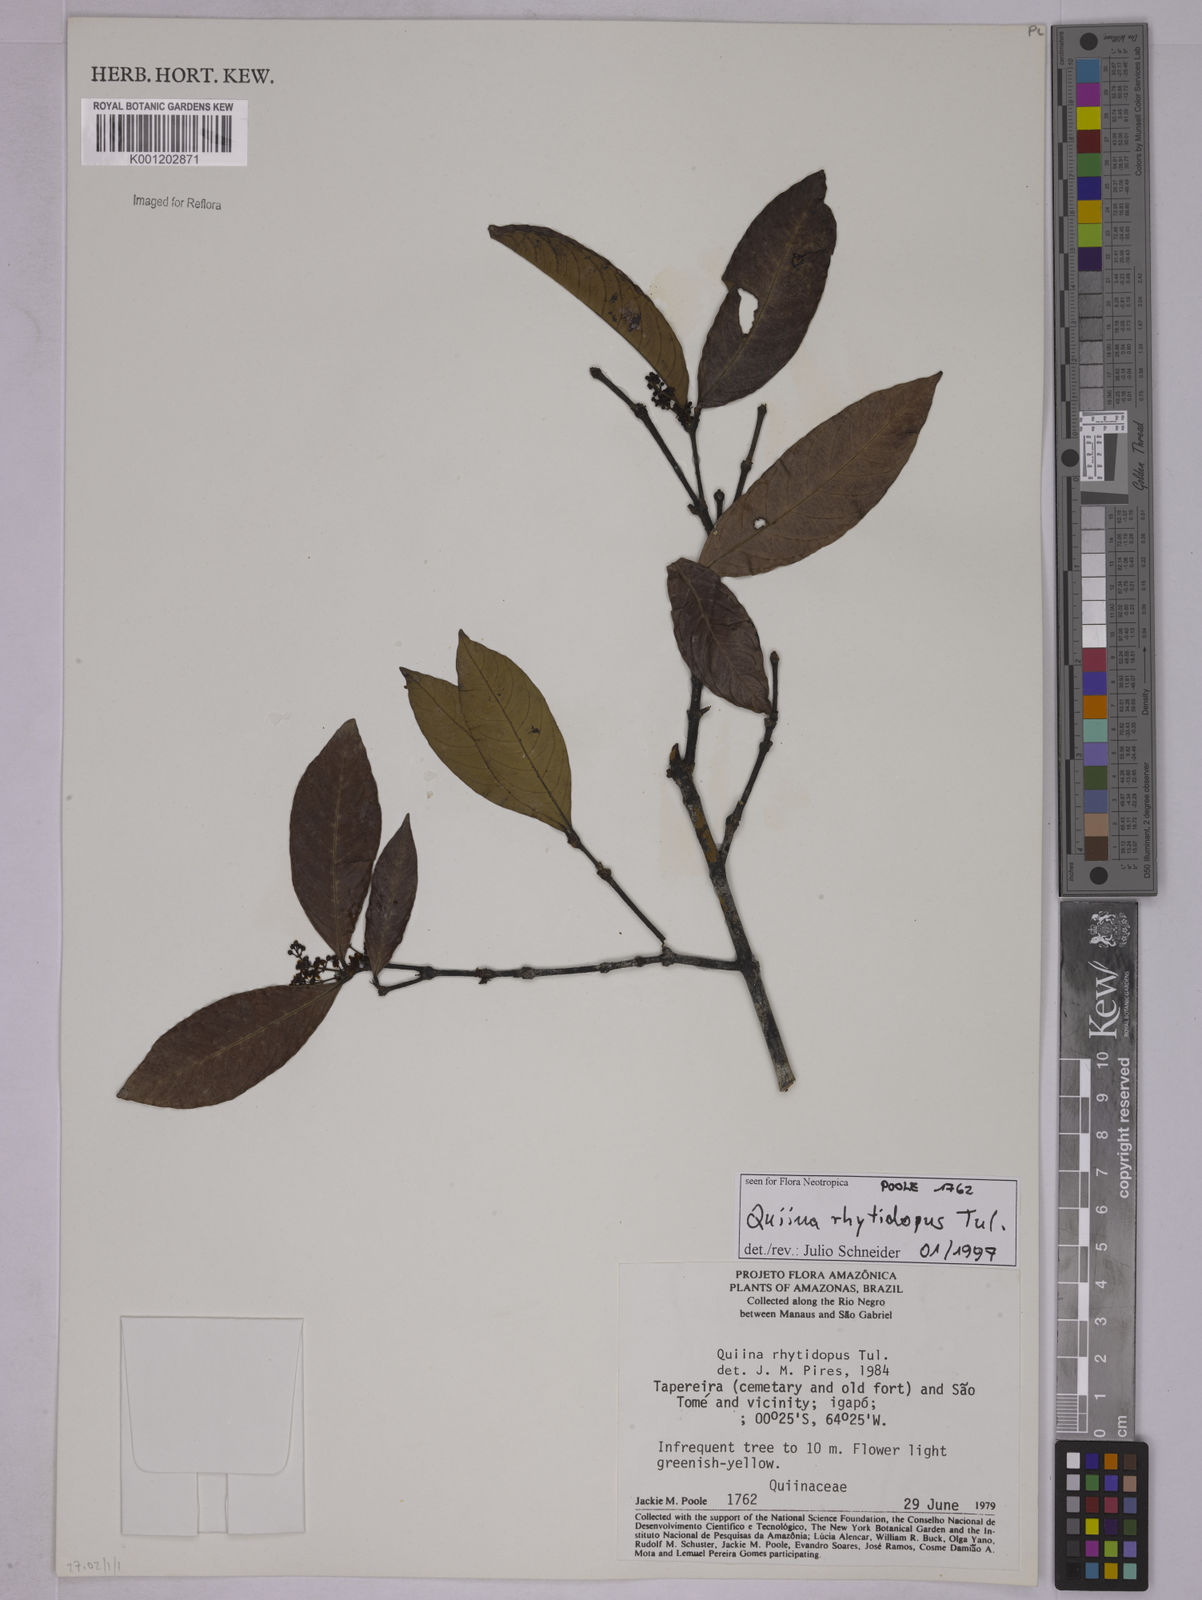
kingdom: Plantae
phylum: Tracheophyta
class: Magnoliopsida
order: Malpighiales
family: Quiinaceae
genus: Quiina
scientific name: Quiina rhytidopus
